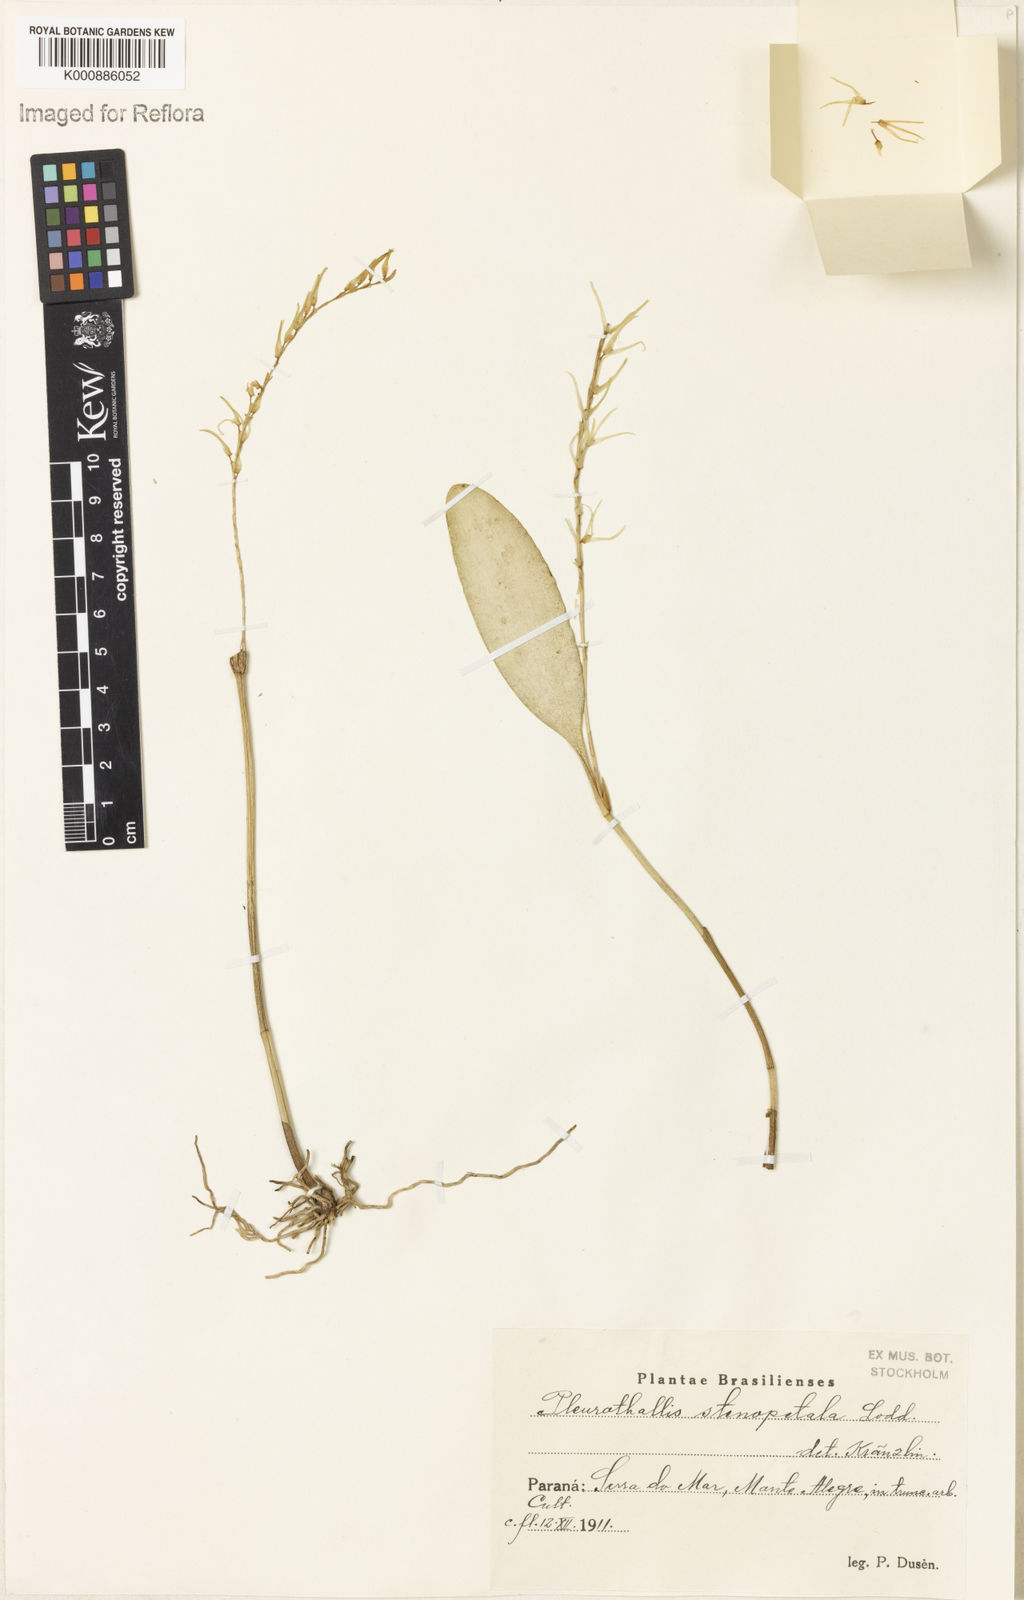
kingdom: Plantae
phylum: Tracheophyta
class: Liliopsida
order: Asparagales
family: Orchidaceae
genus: Stelis
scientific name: Stelis sclerophylla
